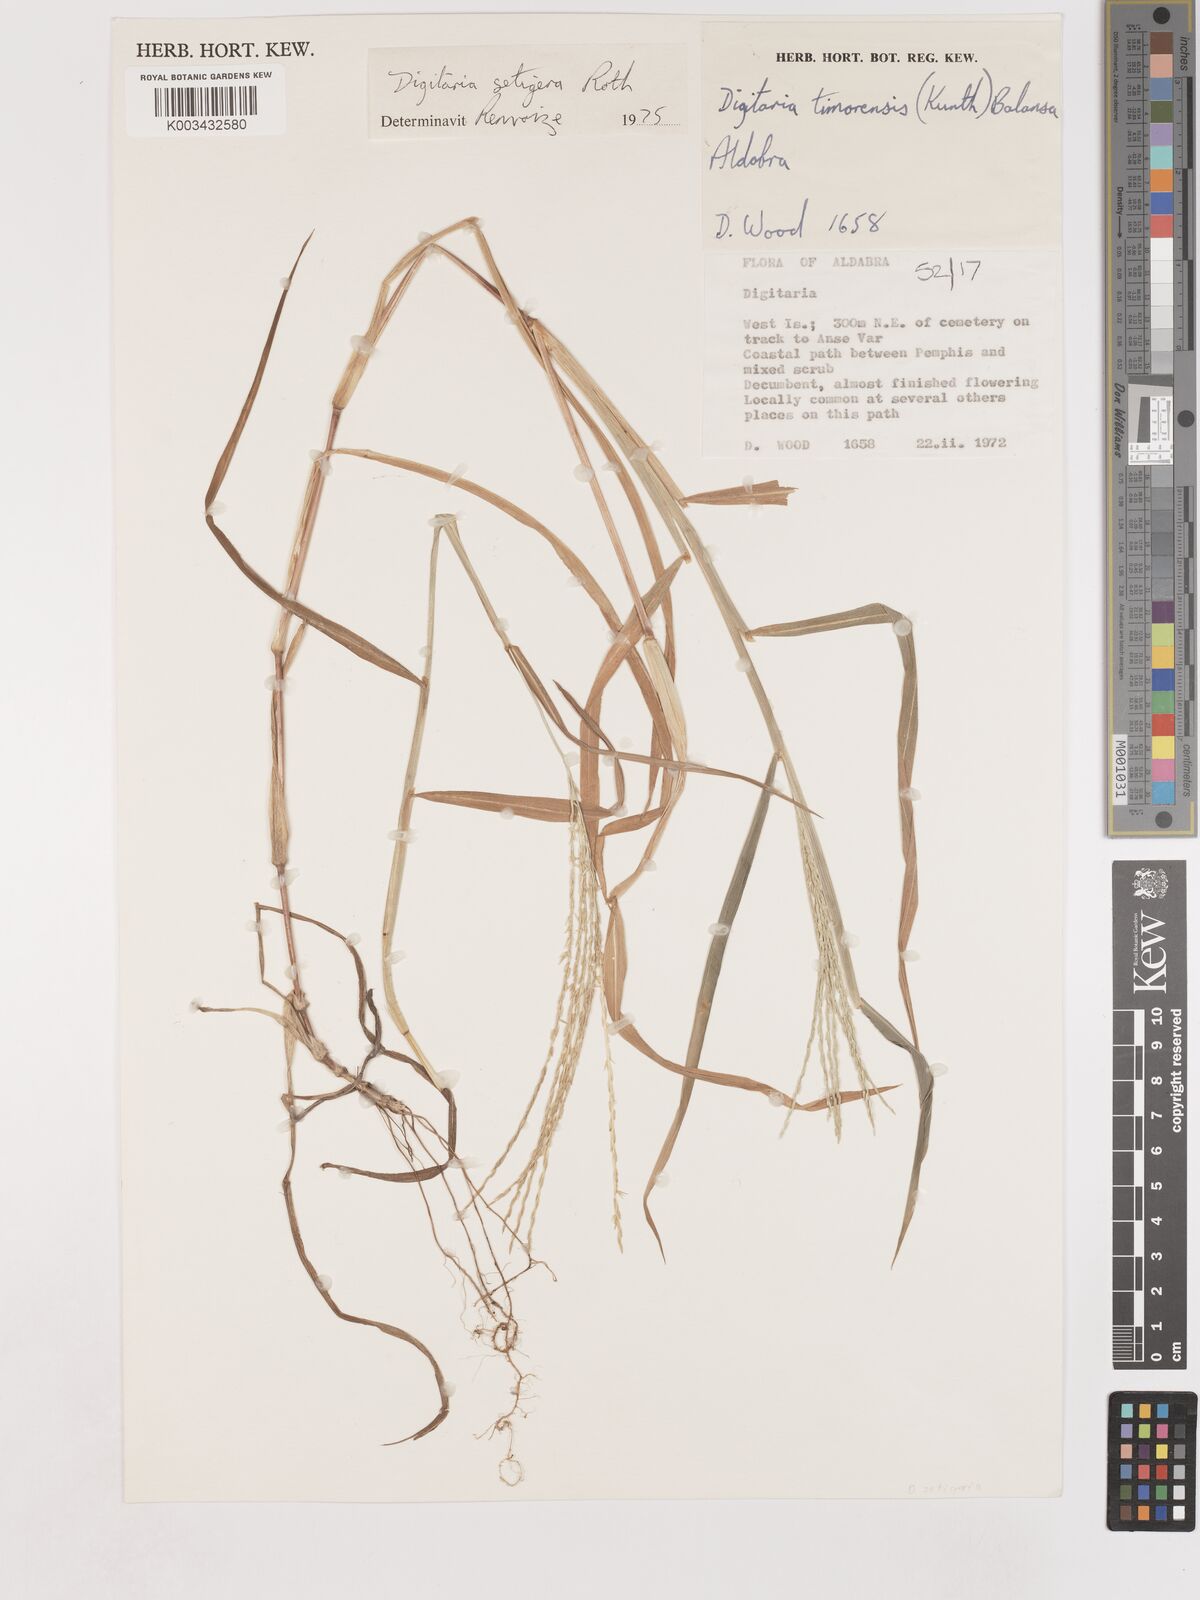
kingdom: Plantae
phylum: Tracheophyta
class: Liliopsida
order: Poales
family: Poaceae
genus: Digitaria
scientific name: Digitaria setigera
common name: East indian crabgrass
